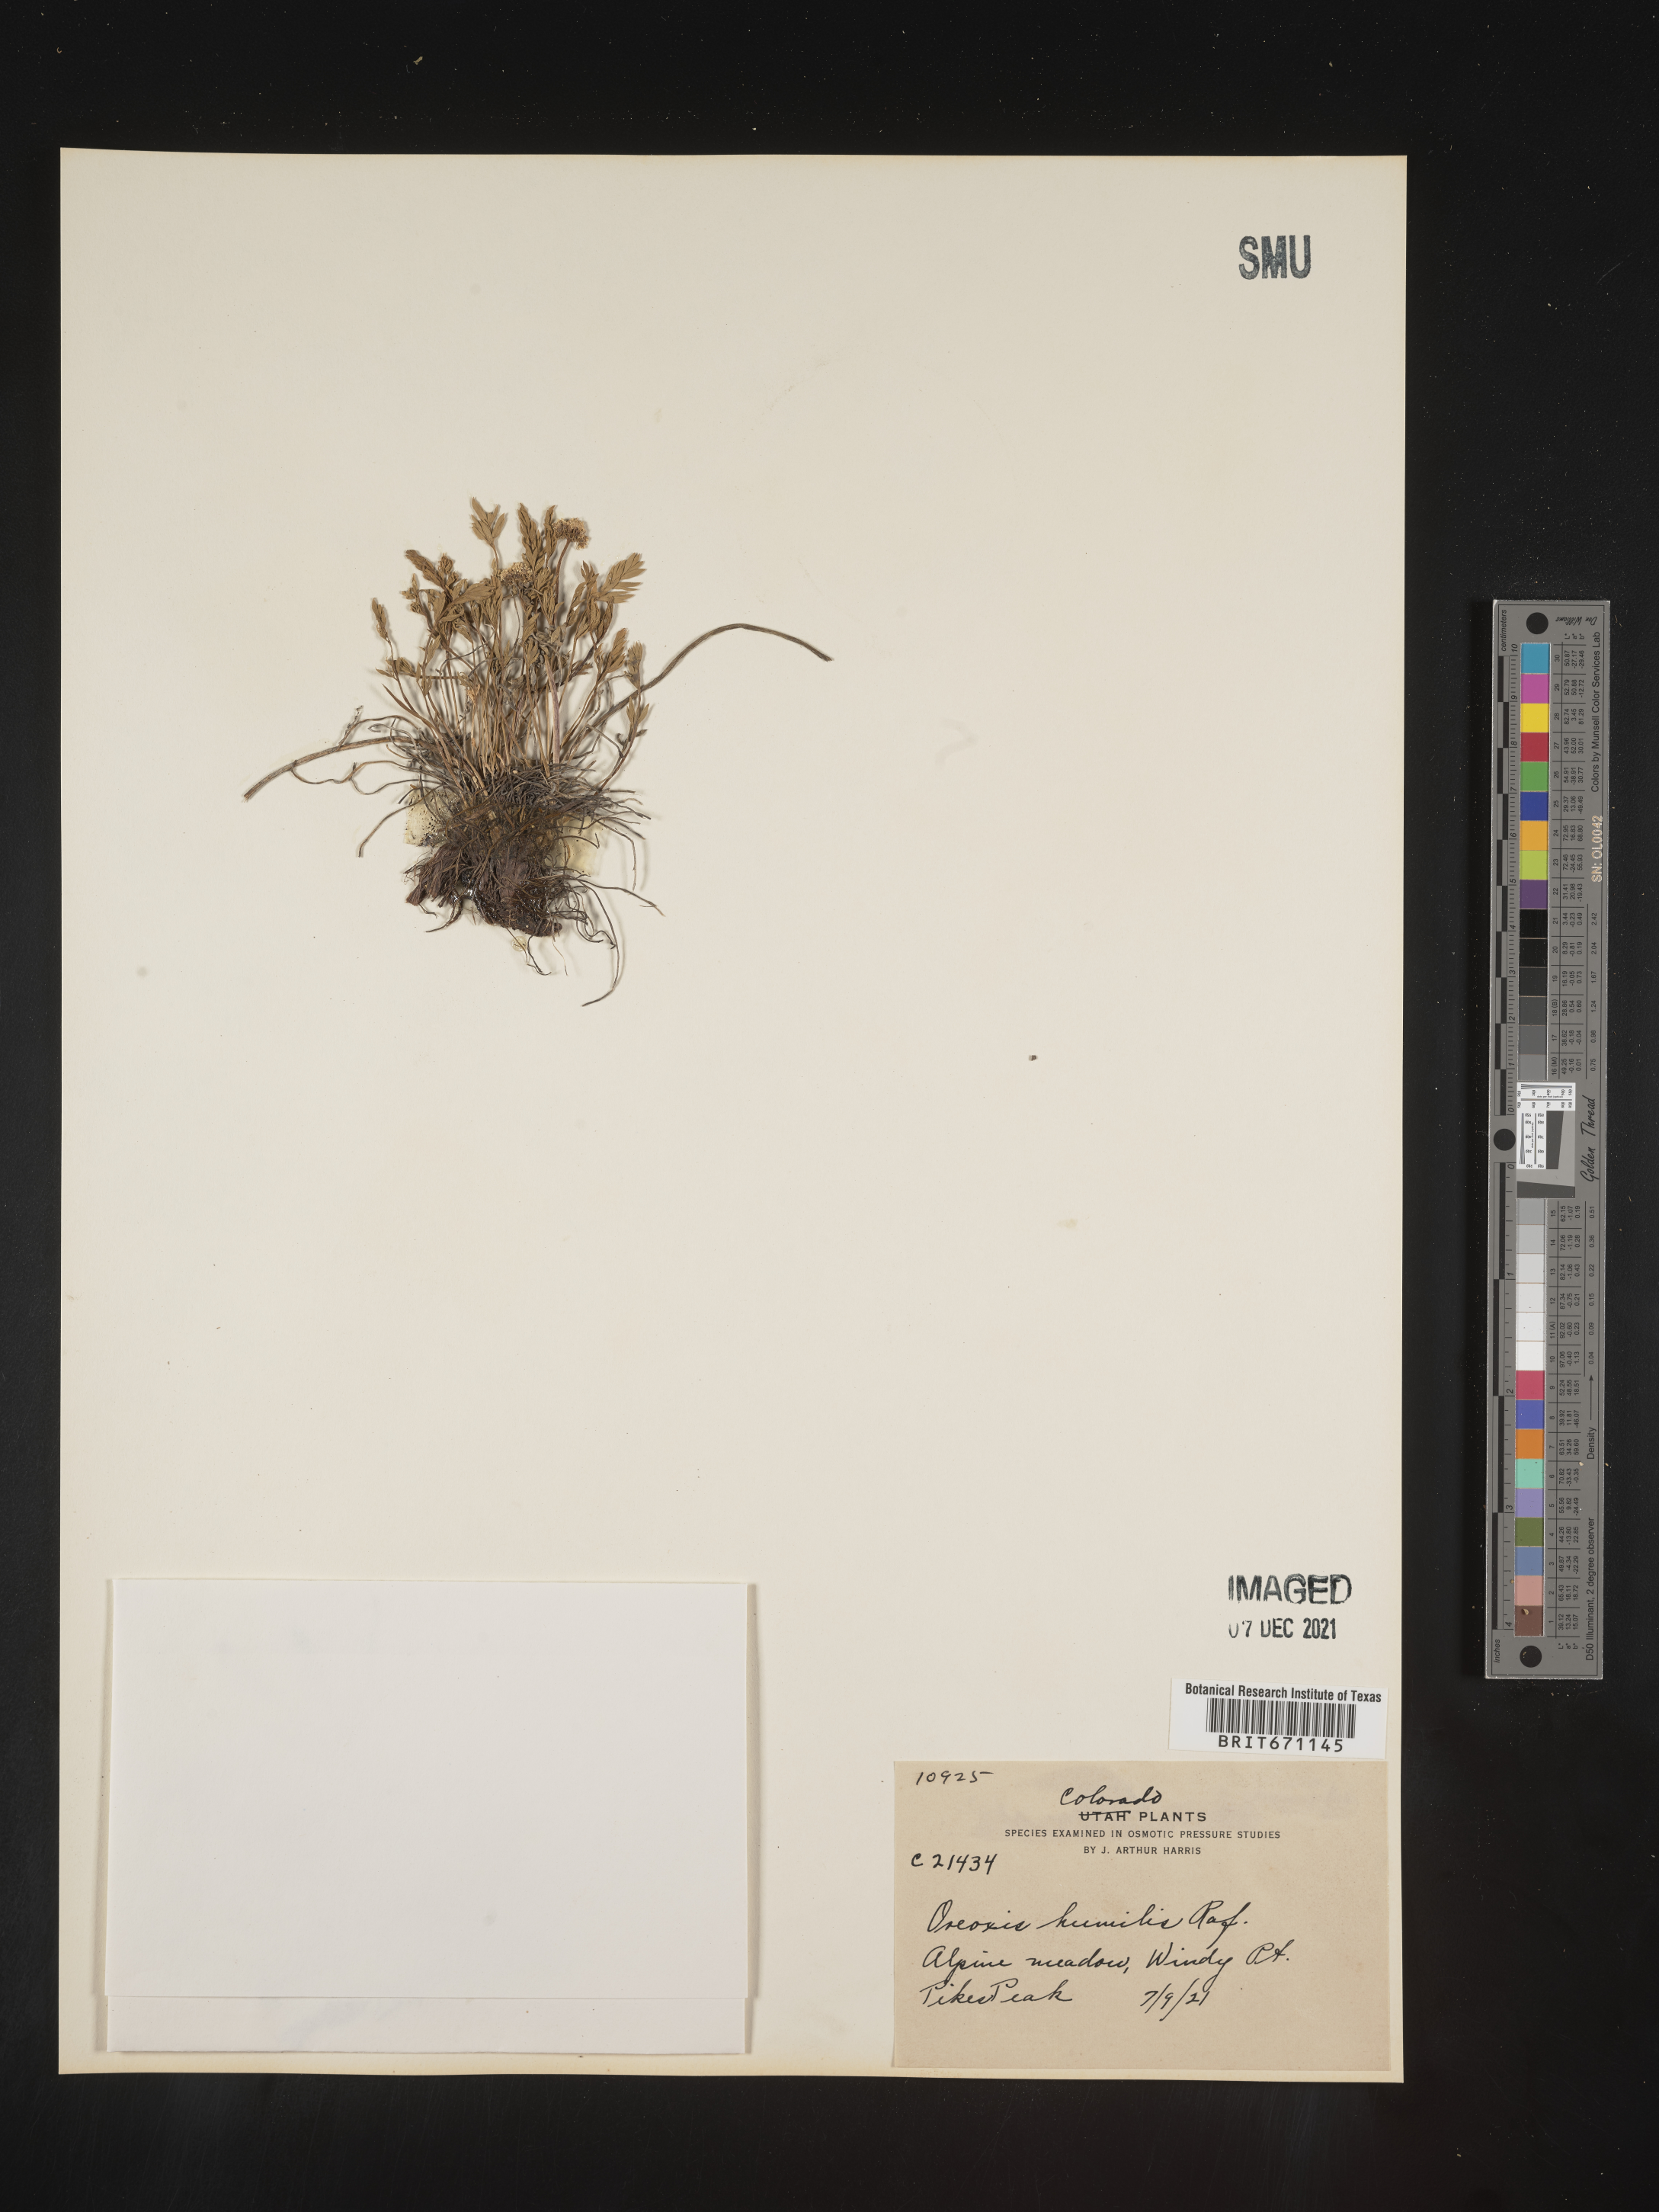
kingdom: Plantae
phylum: Tracheophyta
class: Magnoliopsida
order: Apiales
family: Apiaceae
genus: Oreoxis
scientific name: Oreoxis humilis
